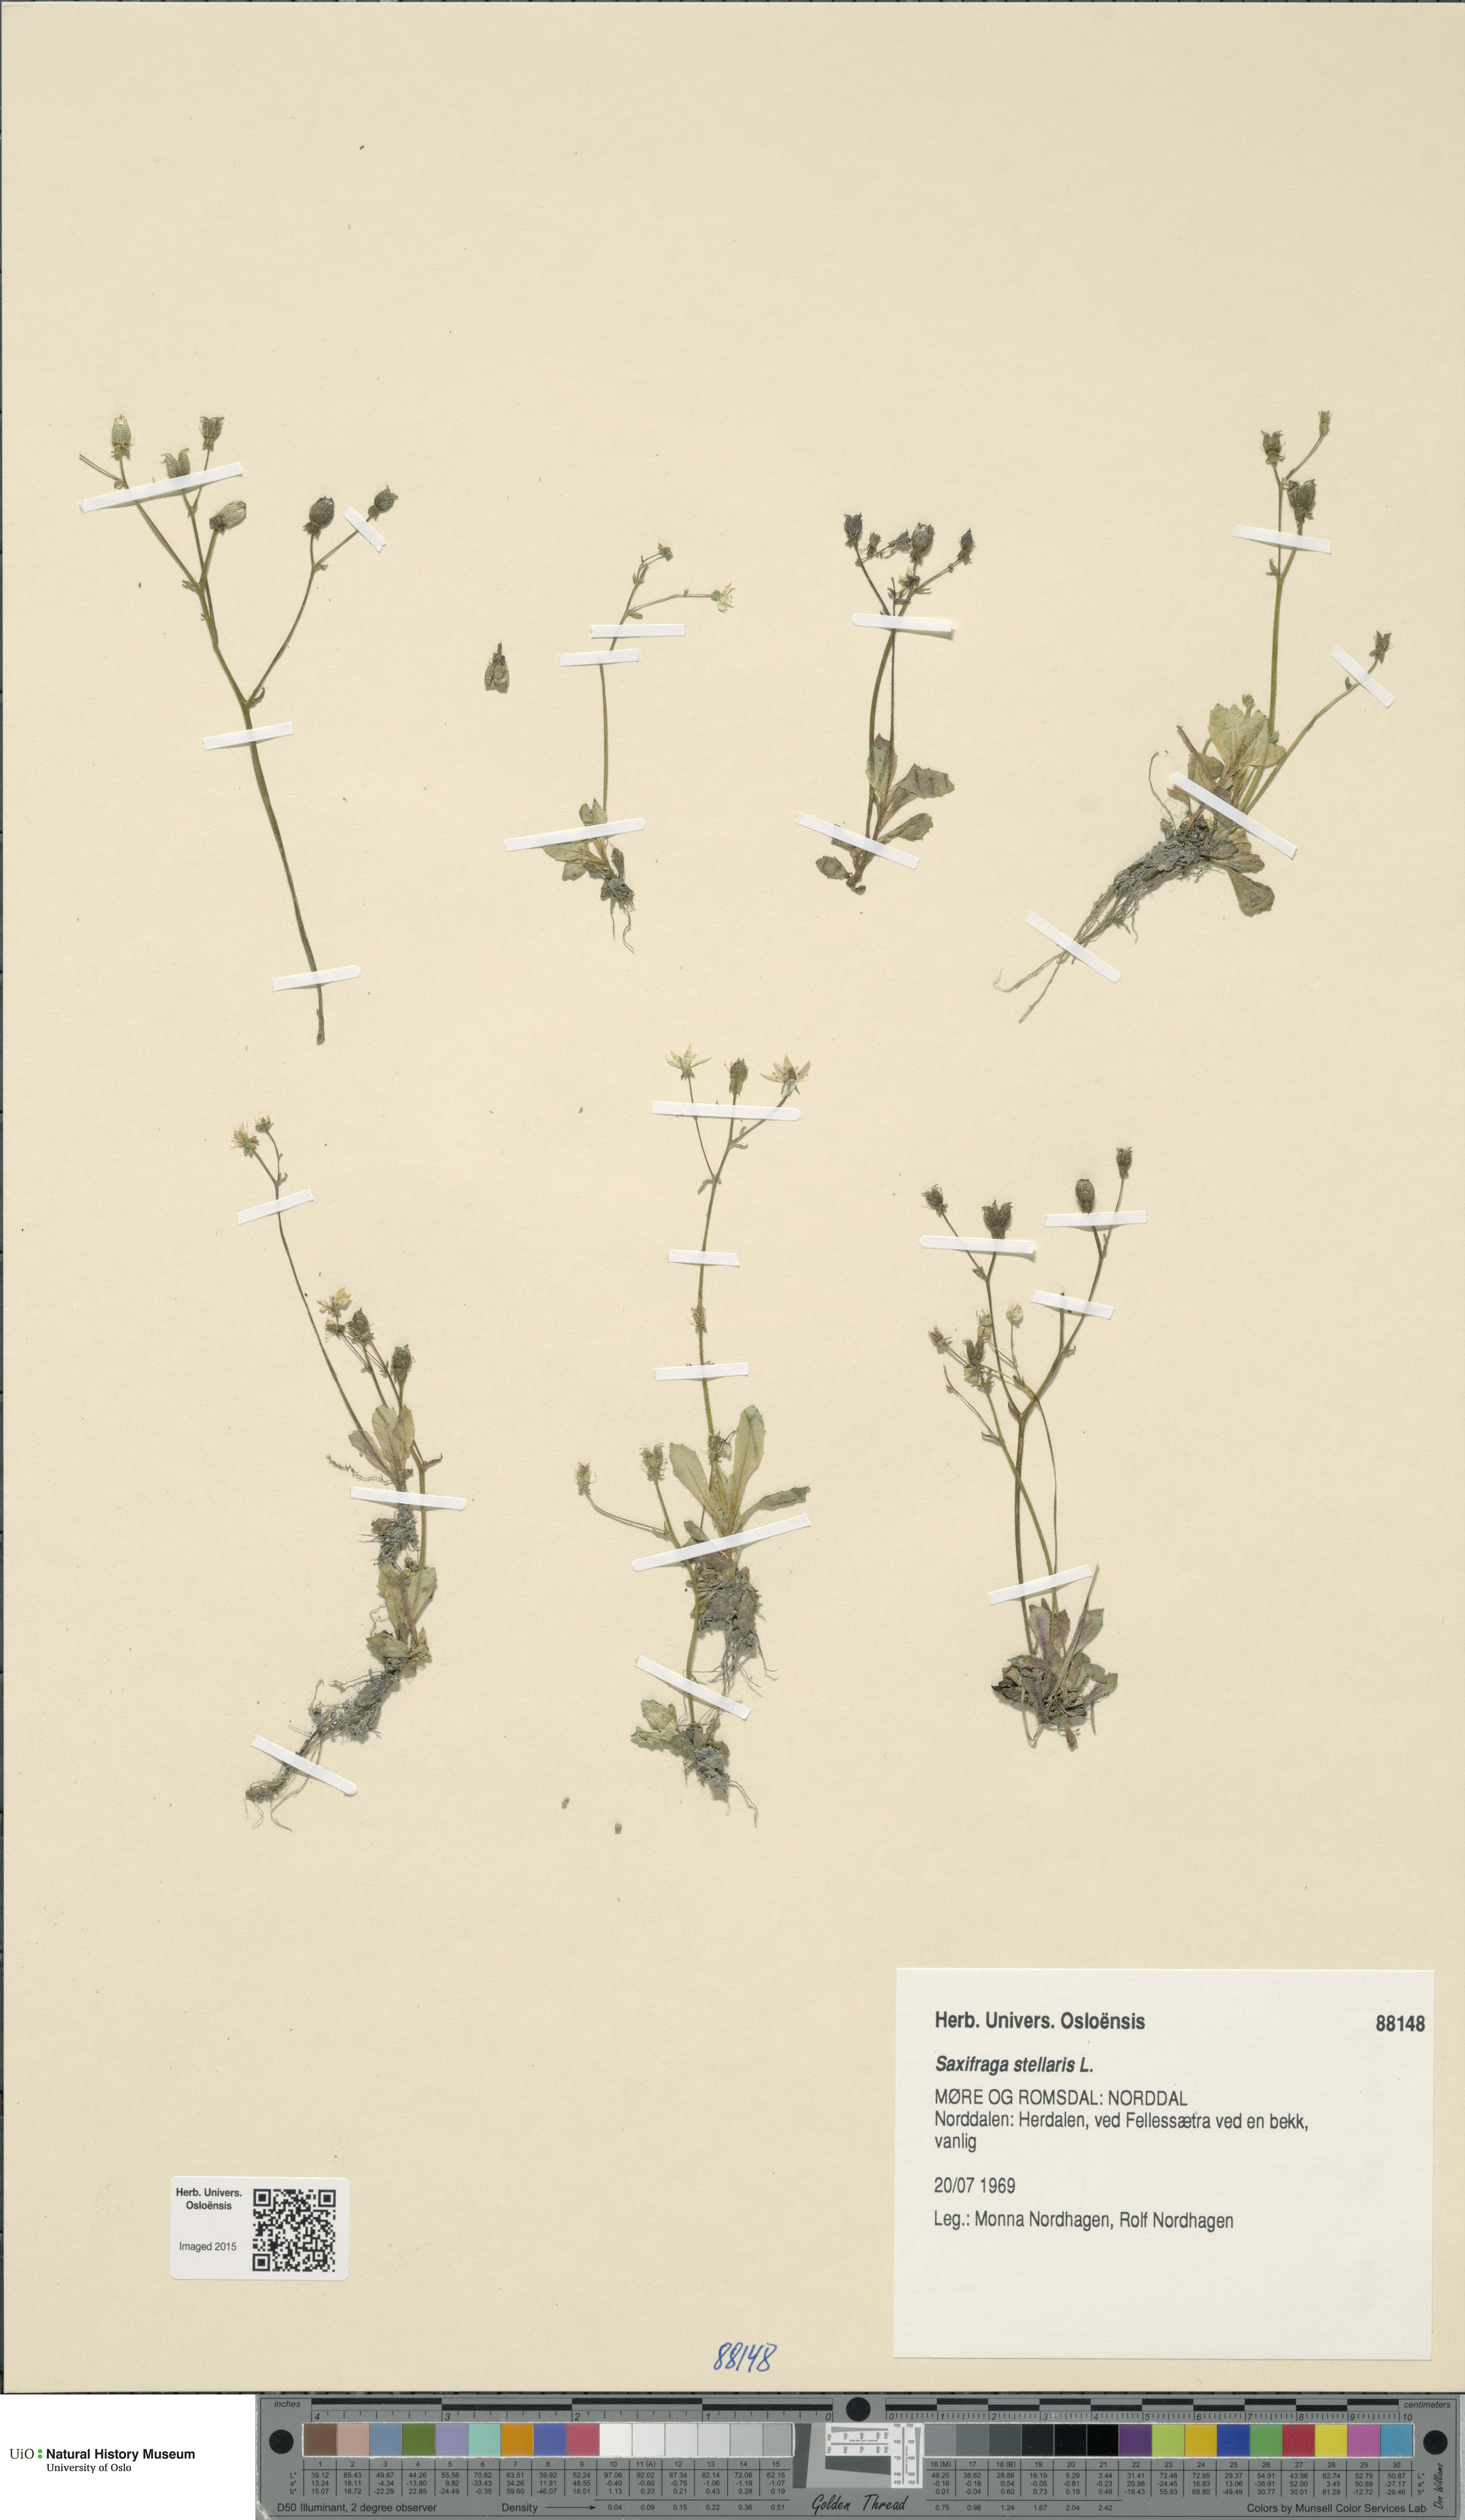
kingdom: Plantae
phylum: Tracheophyta
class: Magnoliopsida
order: Saxifragales
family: Saxifragaceae
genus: Micranthes
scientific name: Micranthes stellaris
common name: Starry saxifrage
